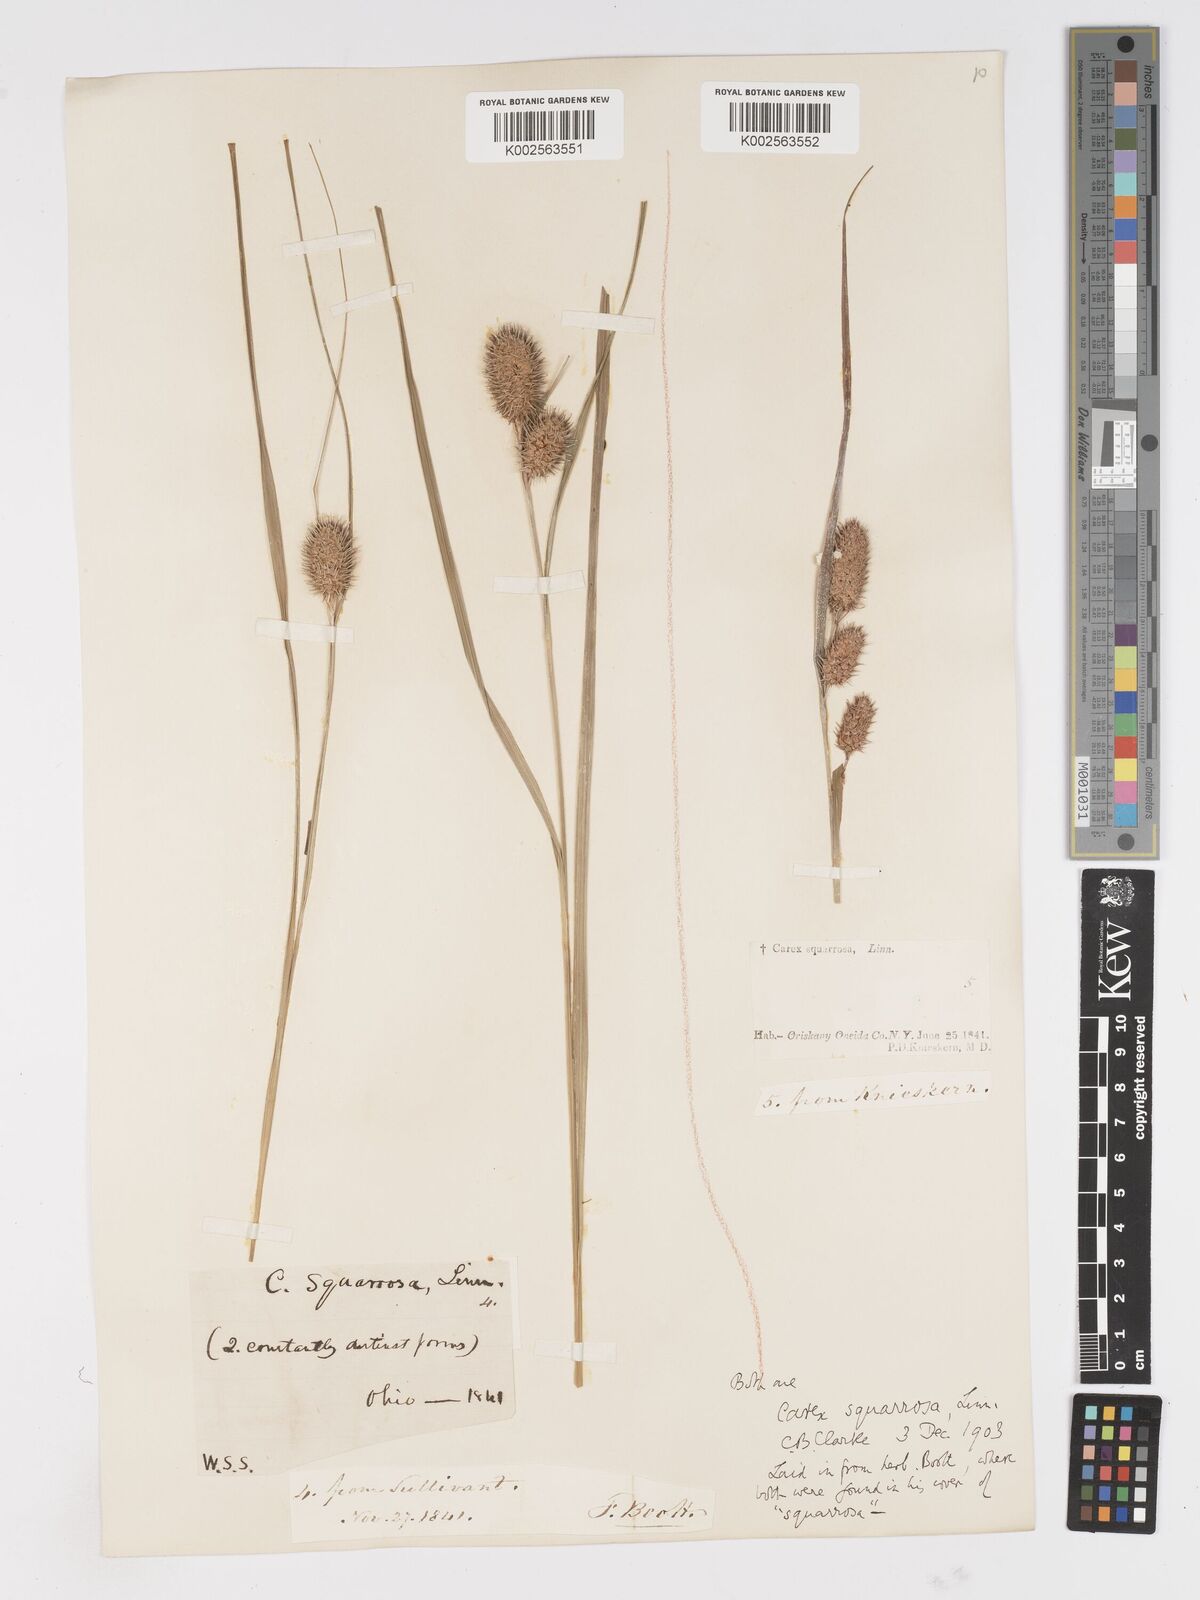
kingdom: Plantae
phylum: Tracheophyta
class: Liliopsida
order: Poales
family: Cyperaceae
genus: Carex
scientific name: Carex squarrosa
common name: Narrow-leaved cattail sedge
